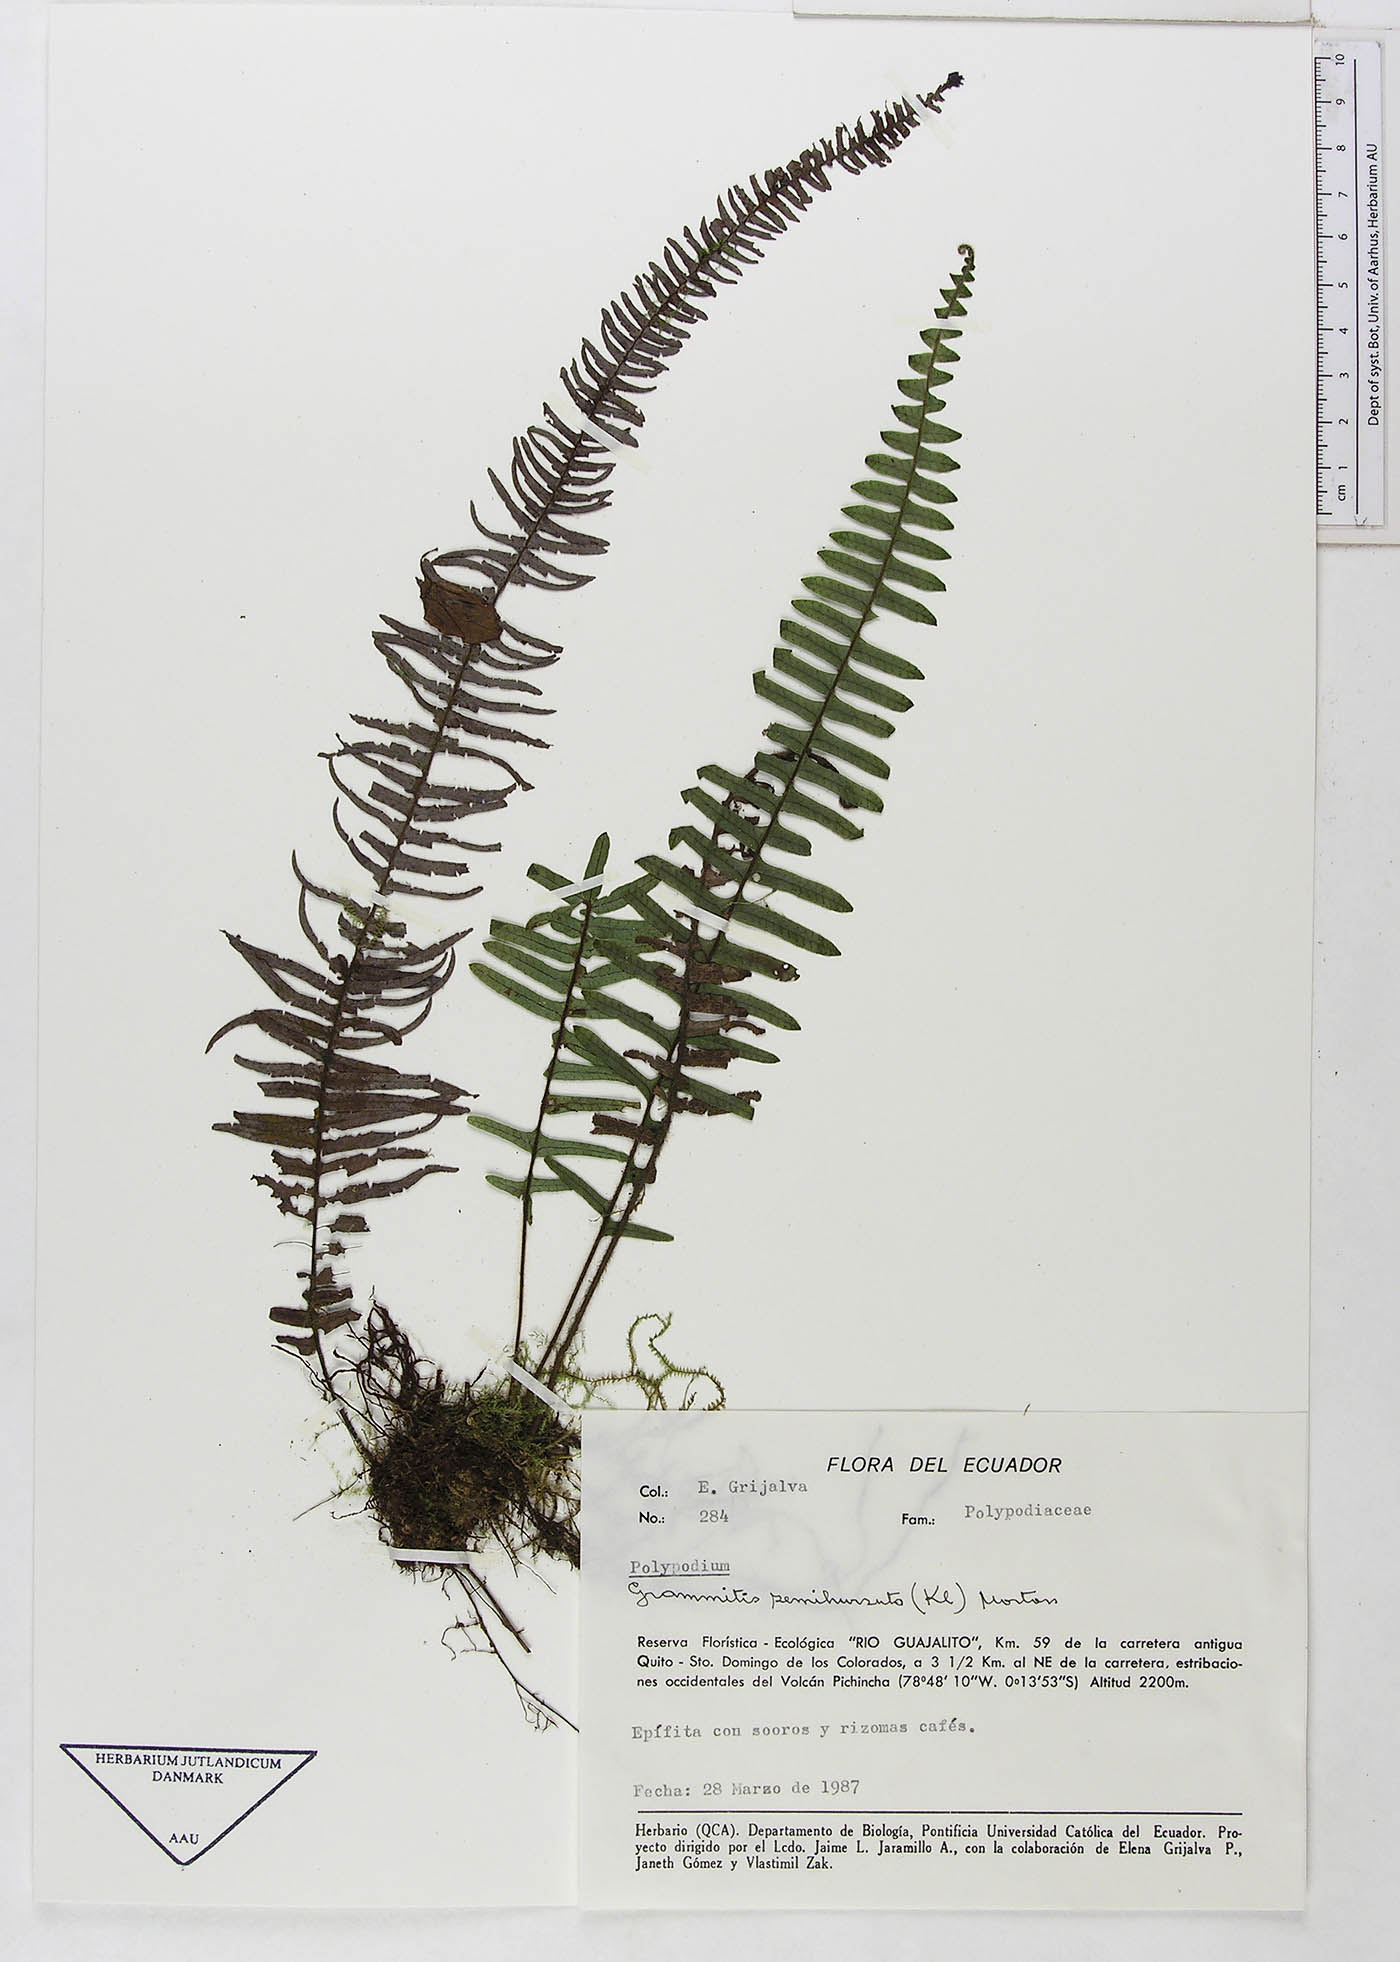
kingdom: Plantae
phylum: Tracheophyta
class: Polypodiopsida
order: Polypodiales
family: Polypodiaceae
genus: Grammitis
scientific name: Grammitis
